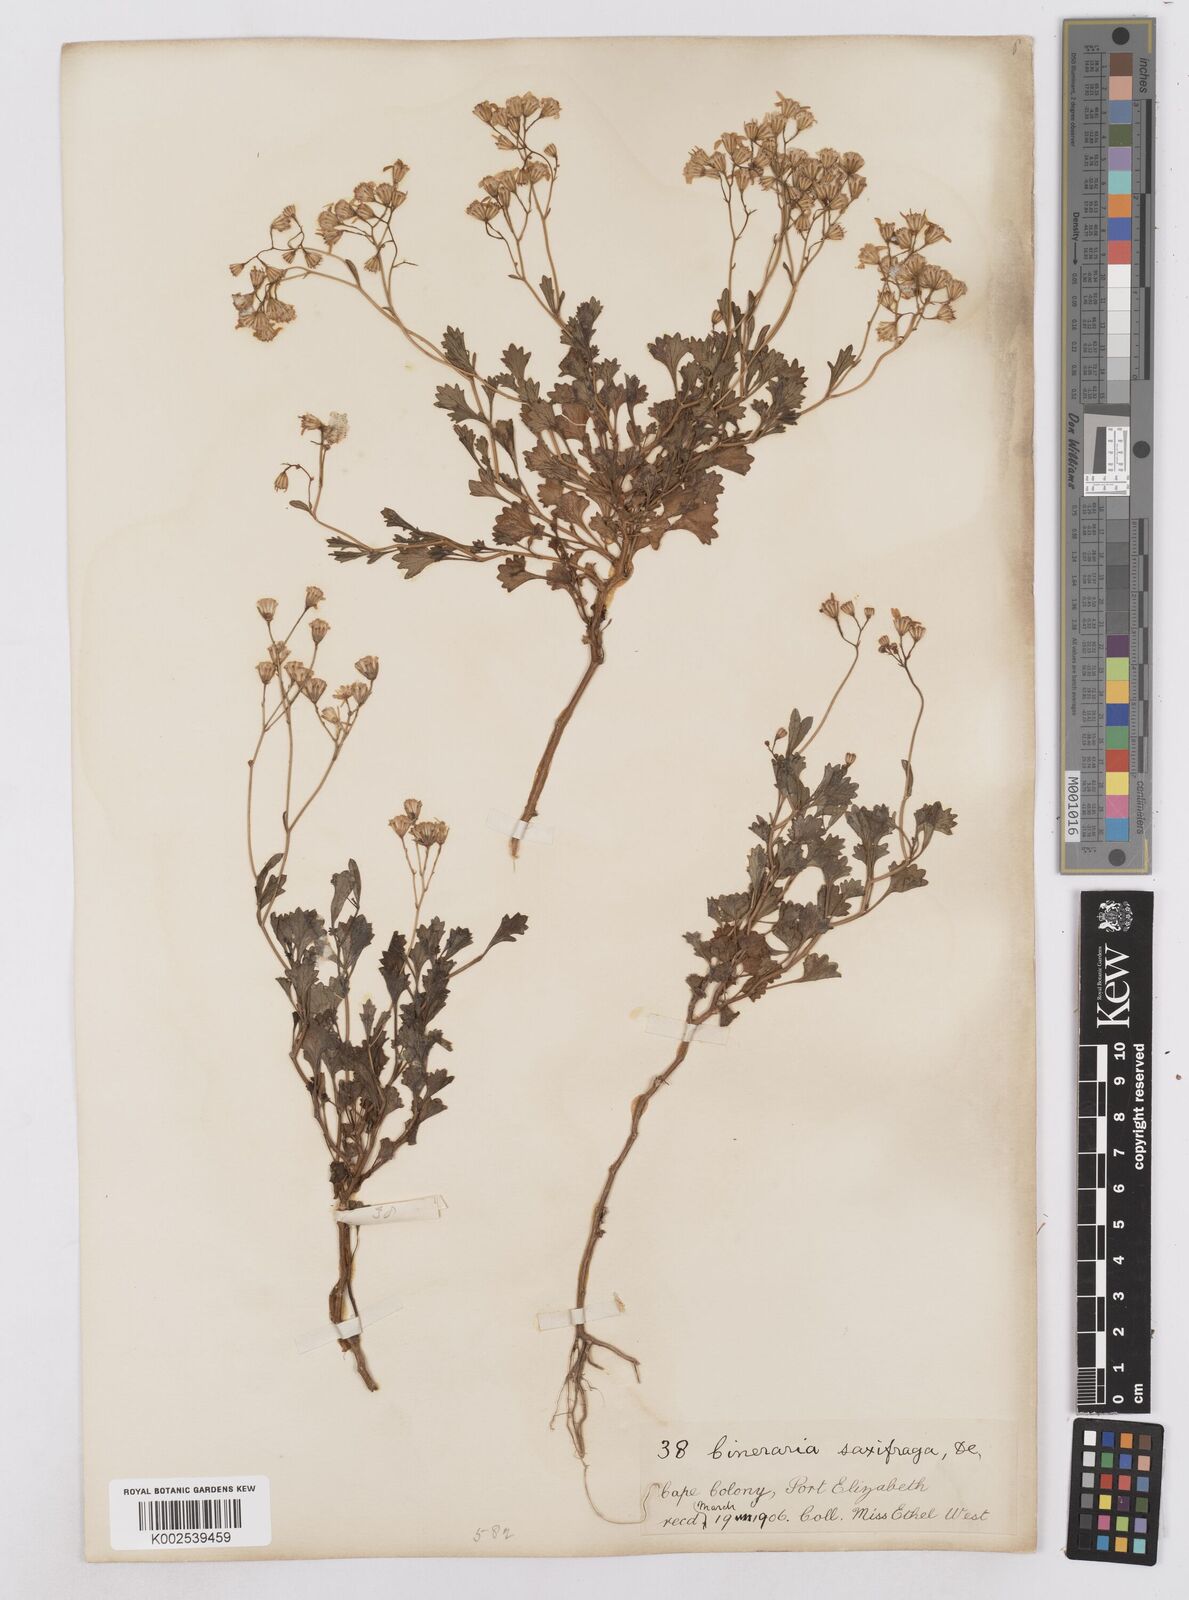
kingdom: Plantae
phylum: Tracheophyta
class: Magnoliopsida
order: Asterales
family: Asteraceae
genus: Cineraria
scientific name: Cineraria saxifraga
